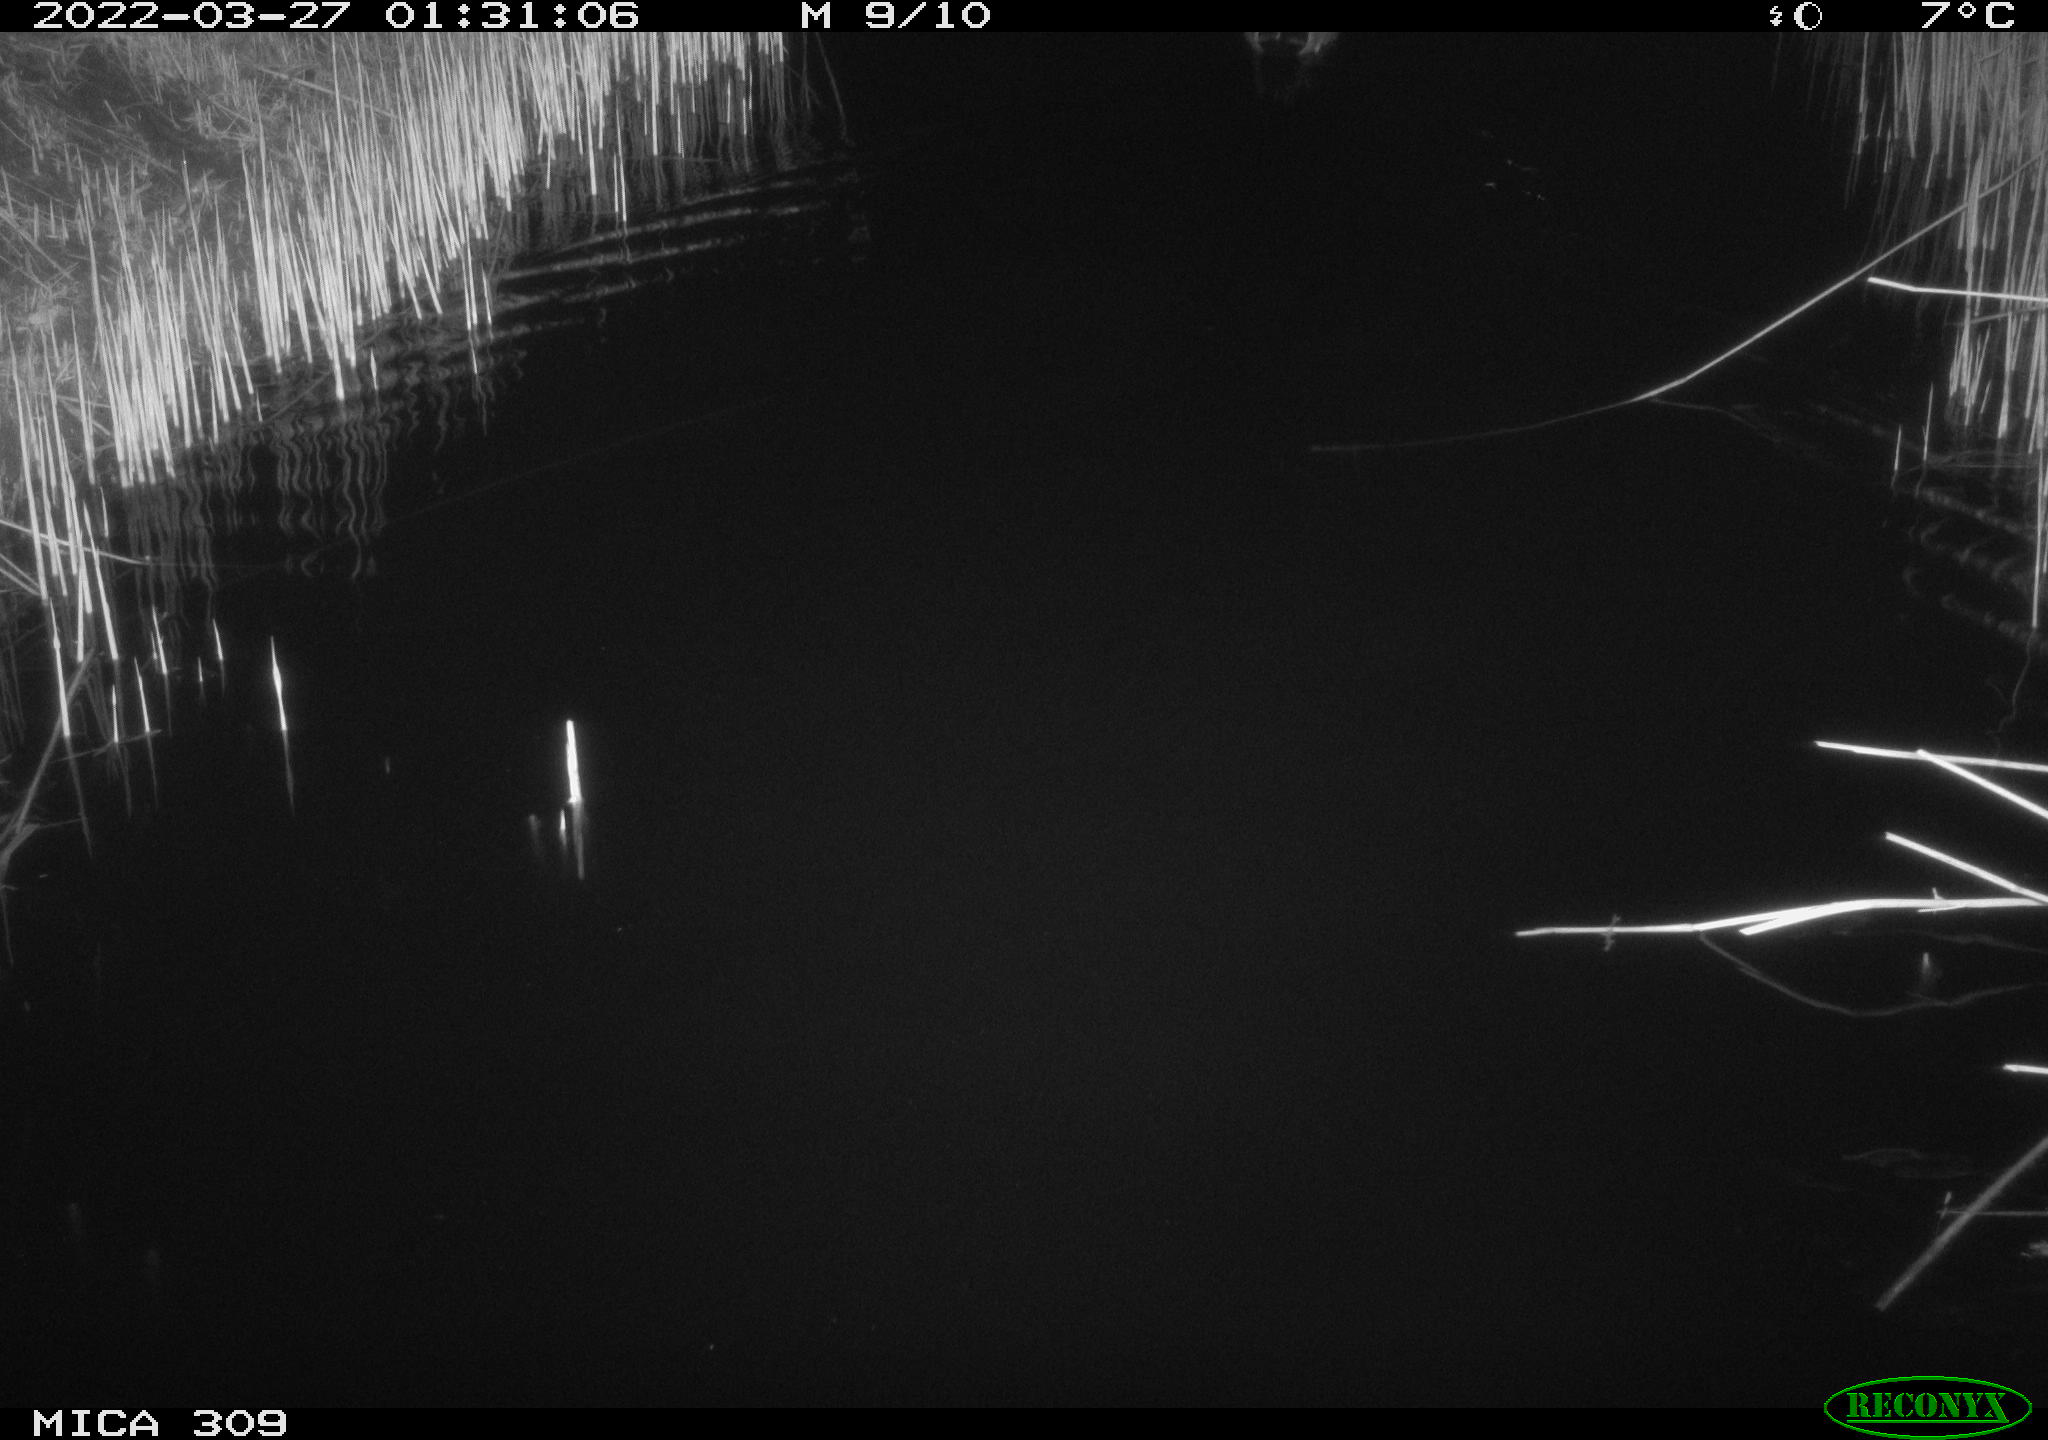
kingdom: Animalia
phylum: Chordata
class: Aves
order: Anseriformes
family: Anatidae
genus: Anas
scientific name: Anas platyrhynchos
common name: Mallard
